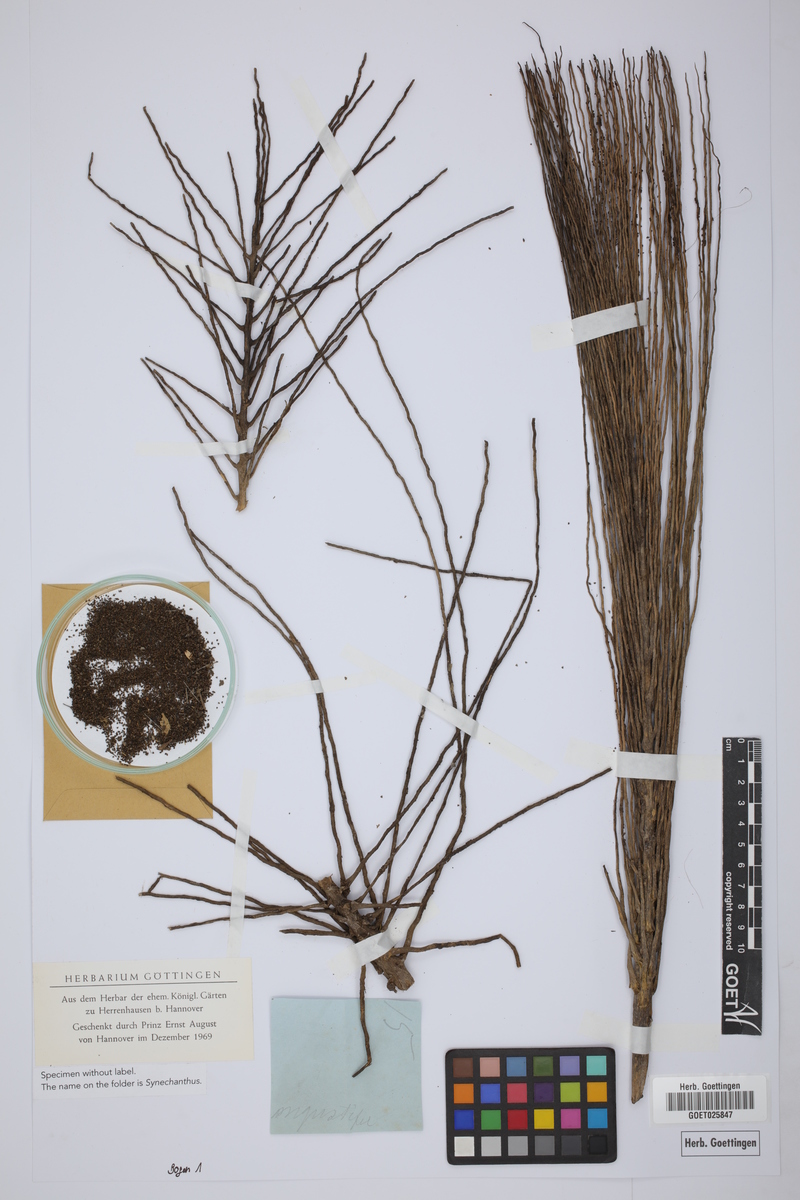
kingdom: Plantae
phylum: Tracheophyta
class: Liliopsida
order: Arecales
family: Arecaceae
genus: Synechanthus
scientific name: Synechanthus
